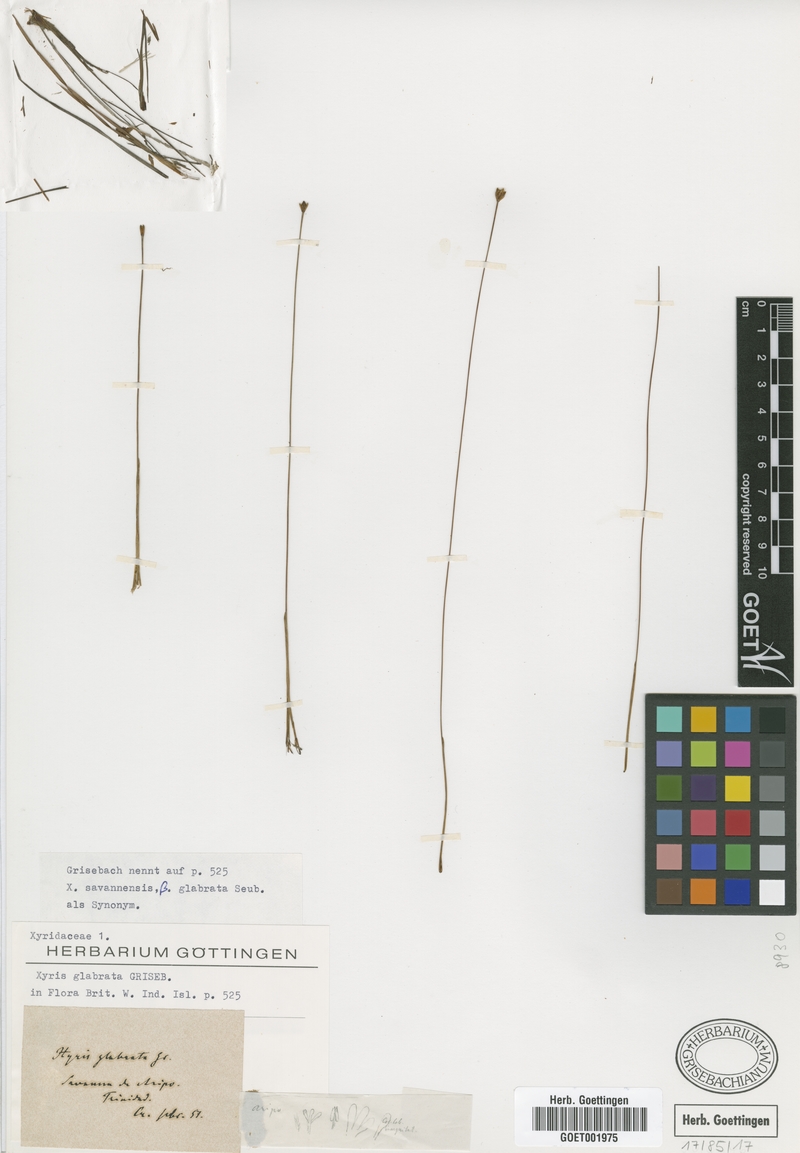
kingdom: Plantae
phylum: Tracheophyta
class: Liliopsida
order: Poales
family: Xyridaceae
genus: Xyris
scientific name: Xyris savanensis
